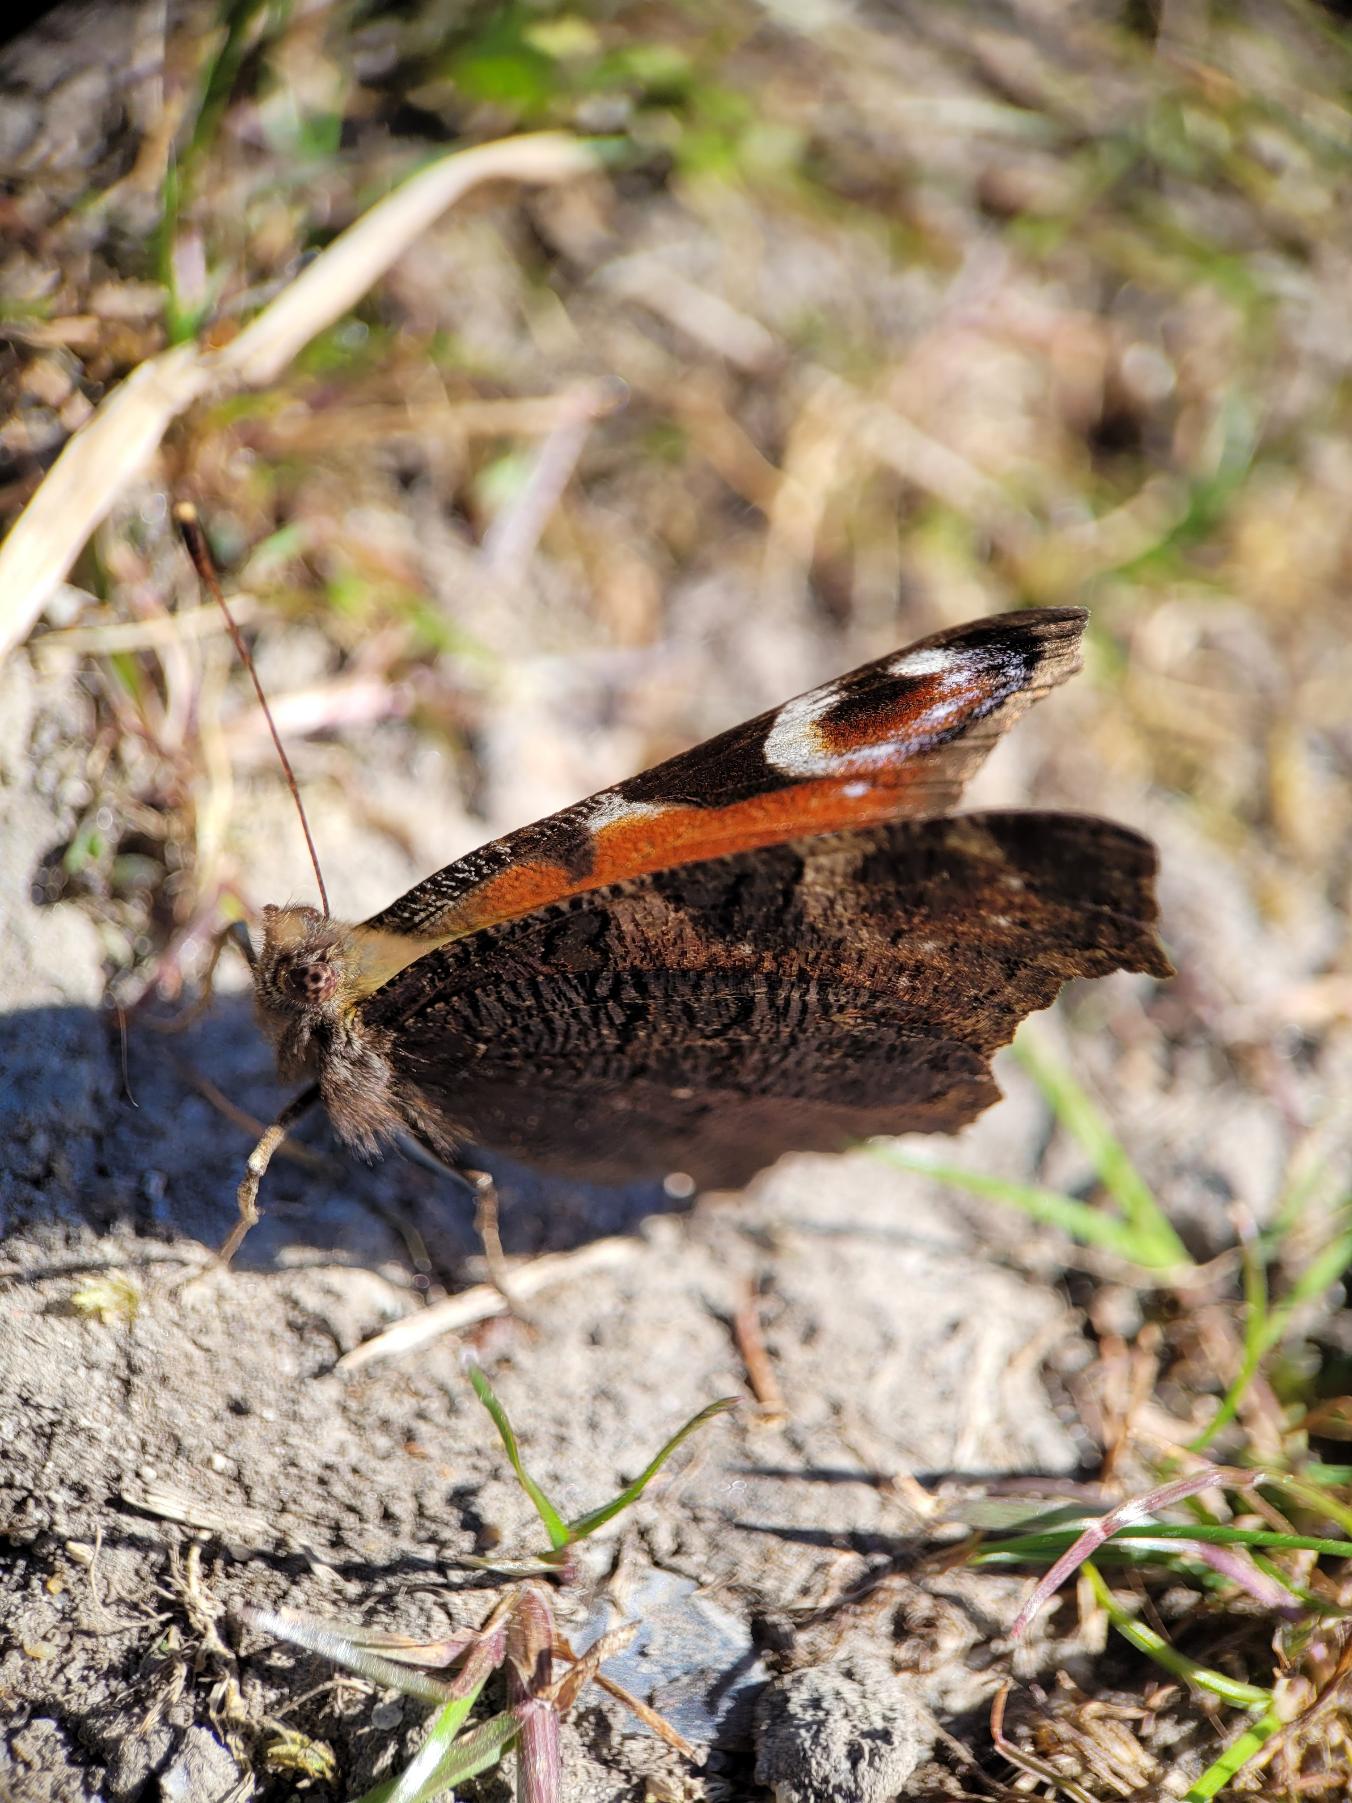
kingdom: Animalia
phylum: Arthropoda
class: Insecta
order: Lepidoptera
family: Nymphalidae
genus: Aglais
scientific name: Aglais io
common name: Dagpåfugleøje
